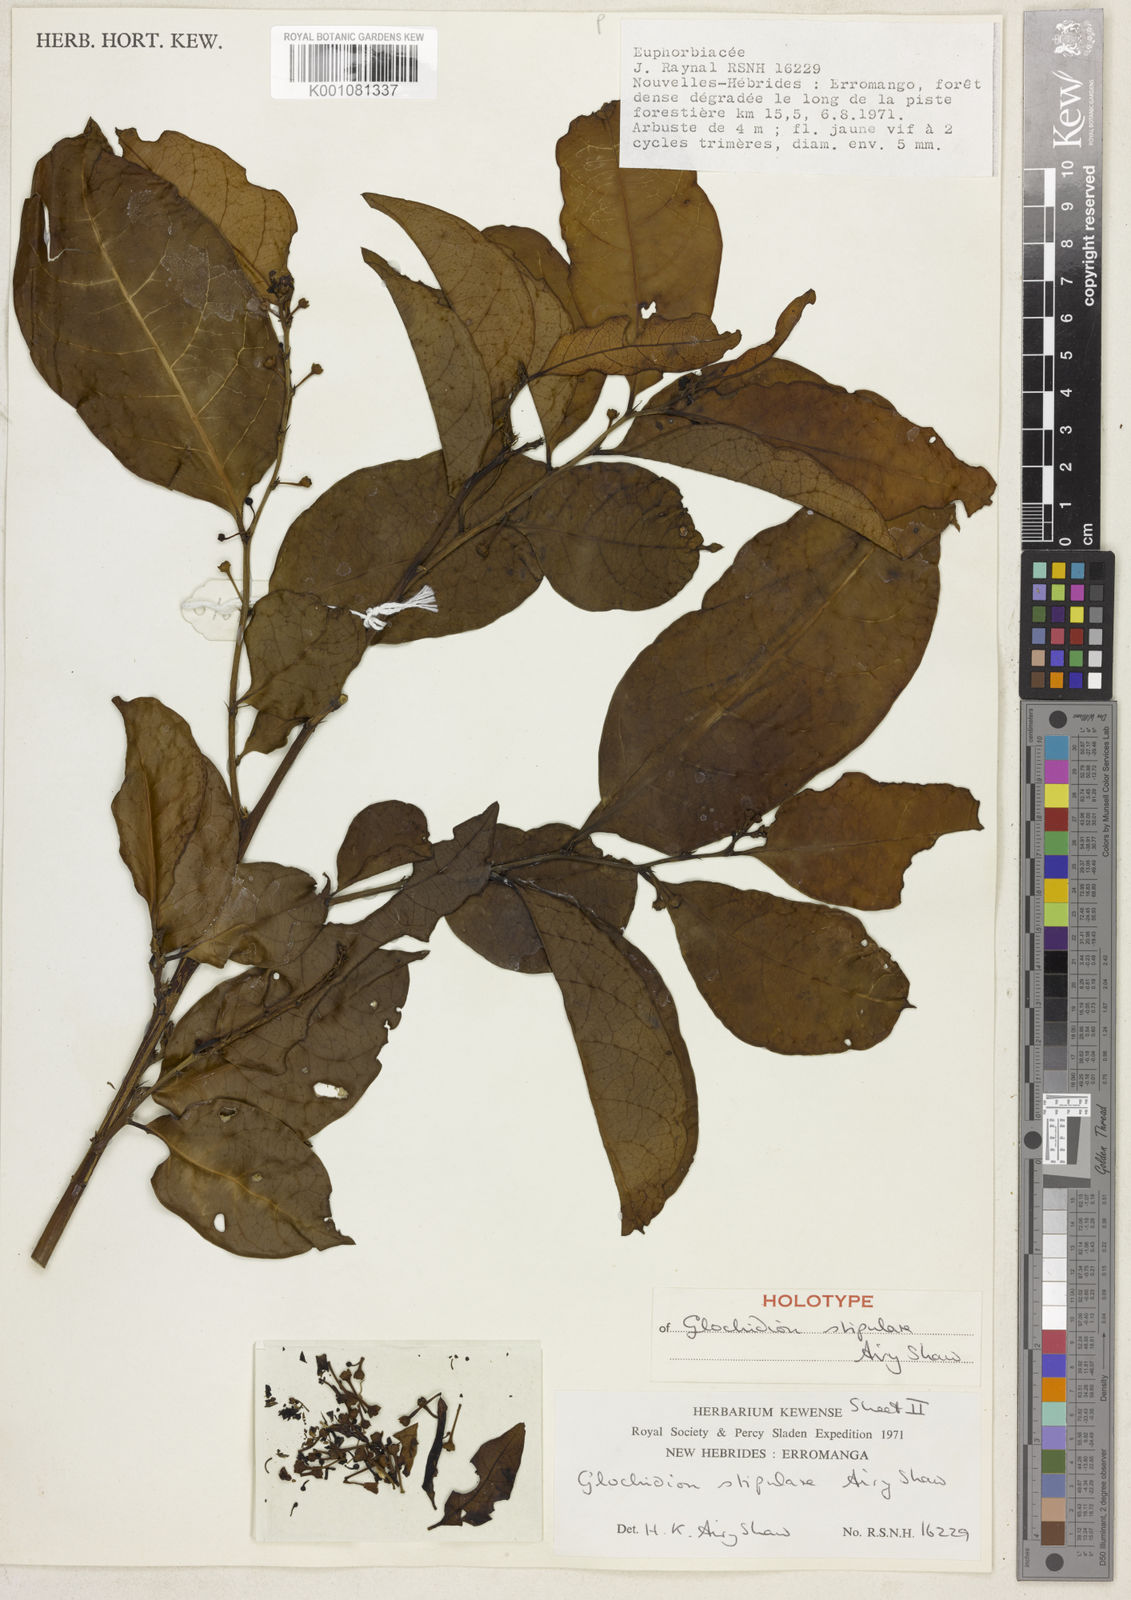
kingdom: Plantae
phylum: Tracheophyta
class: Magnoliopsida
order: Malpighiales
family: Phyllanthaceae
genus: Glochidion
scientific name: Glochidion stipulare
